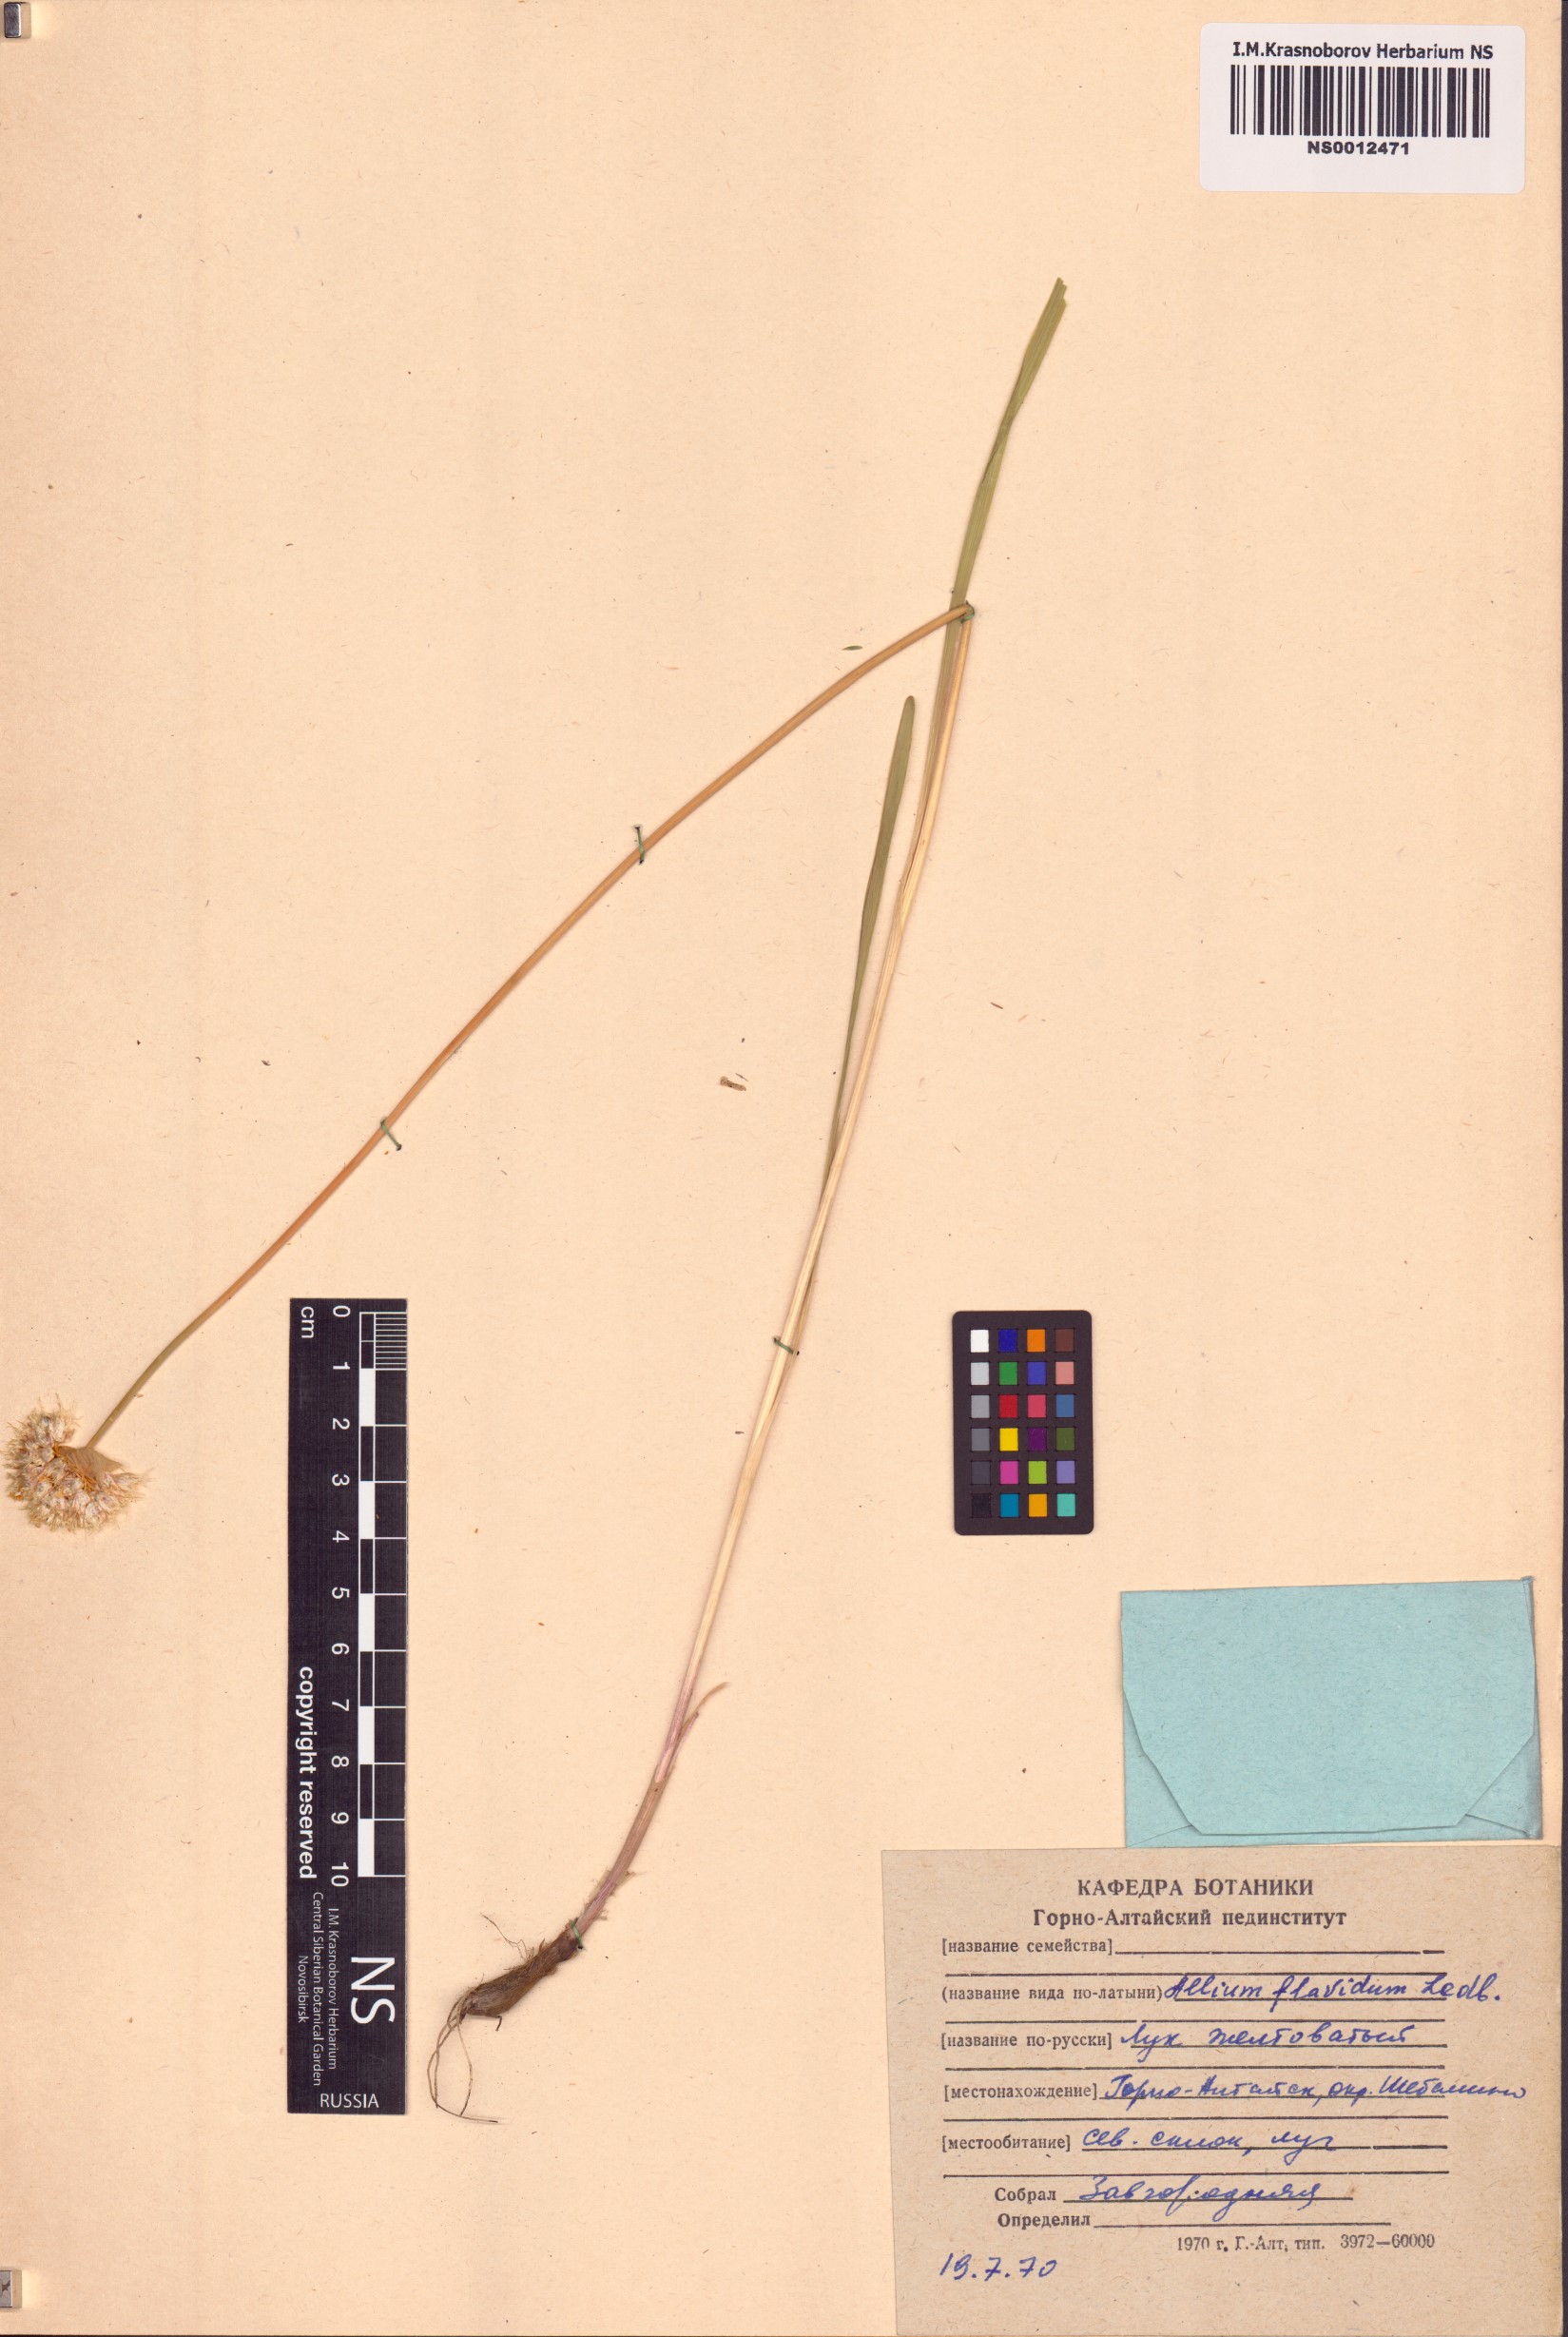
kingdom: Plantae
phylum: Tracheophyta
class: Liliopsida
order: Asparagales
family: Amaryllidaceae
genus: Allium
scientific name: Allium flavidum
